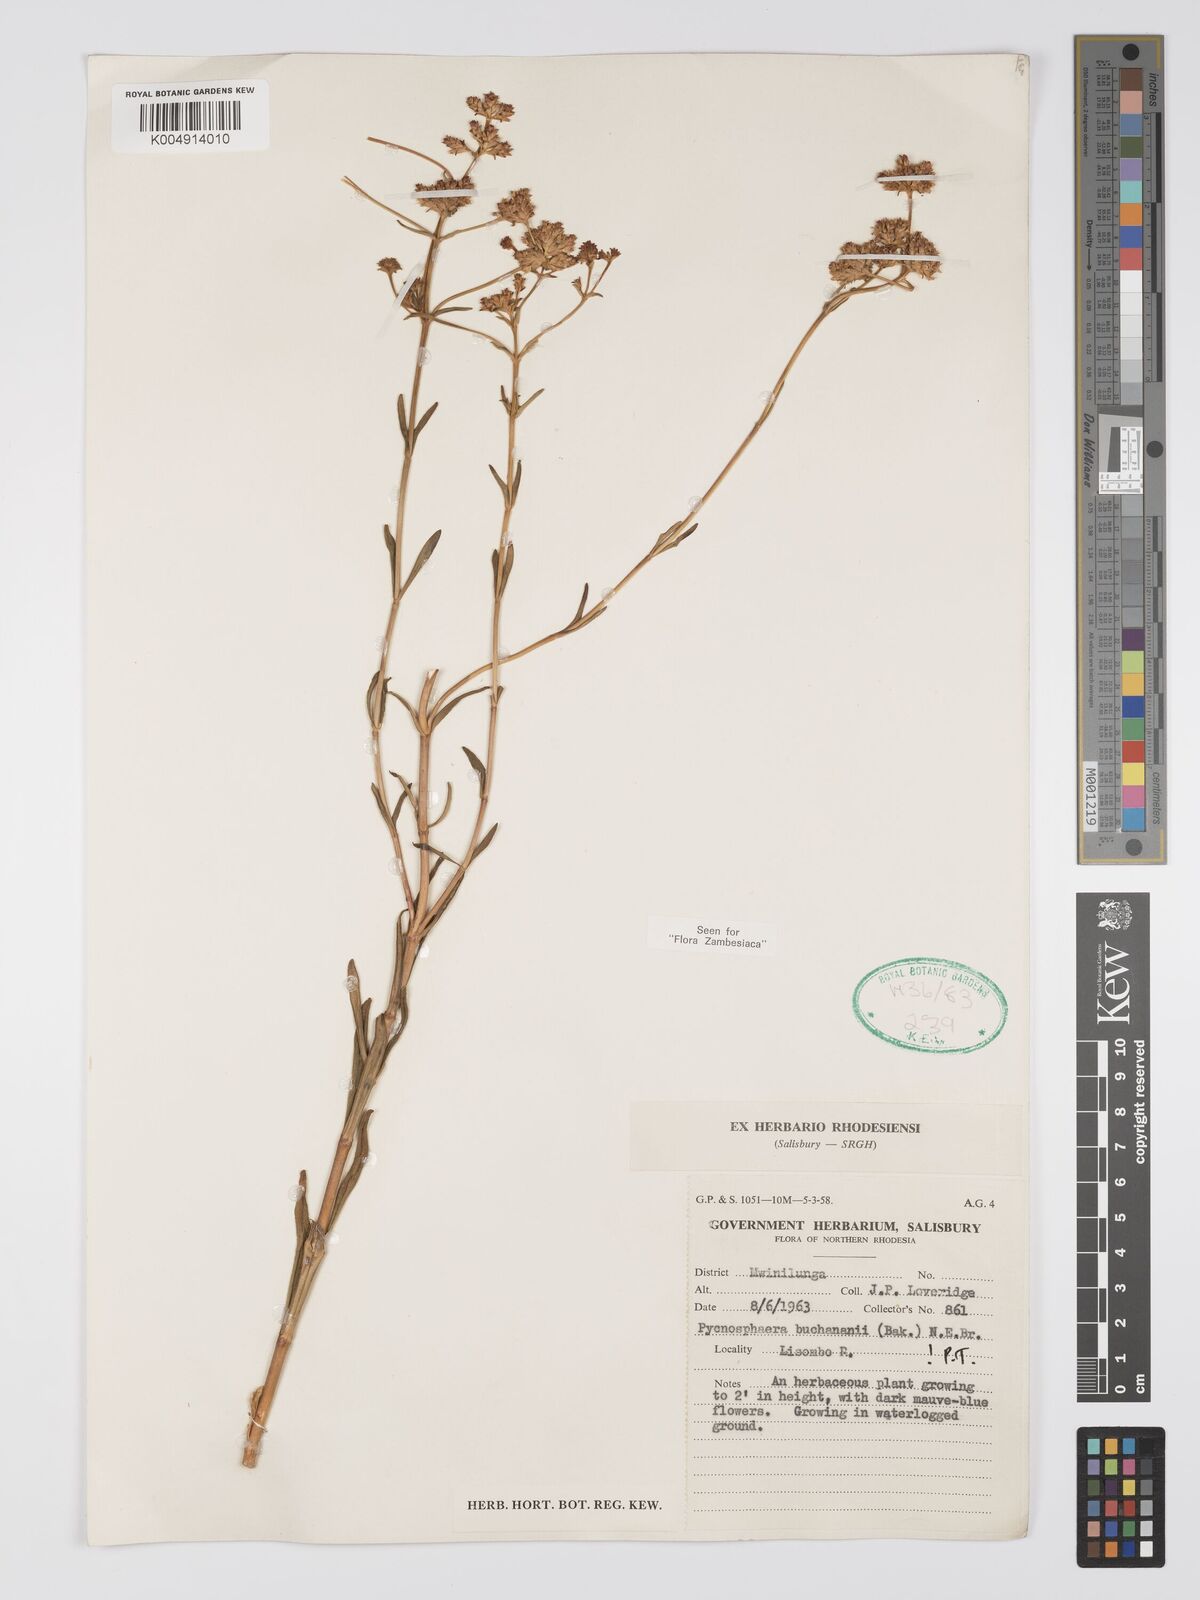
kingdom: Plantae
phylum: Tracheophyta
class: Magnoliopsida
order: Gentianales
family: Gentianaceae
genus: Pycnosphaera
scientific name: Pycnosphaera buchananii
